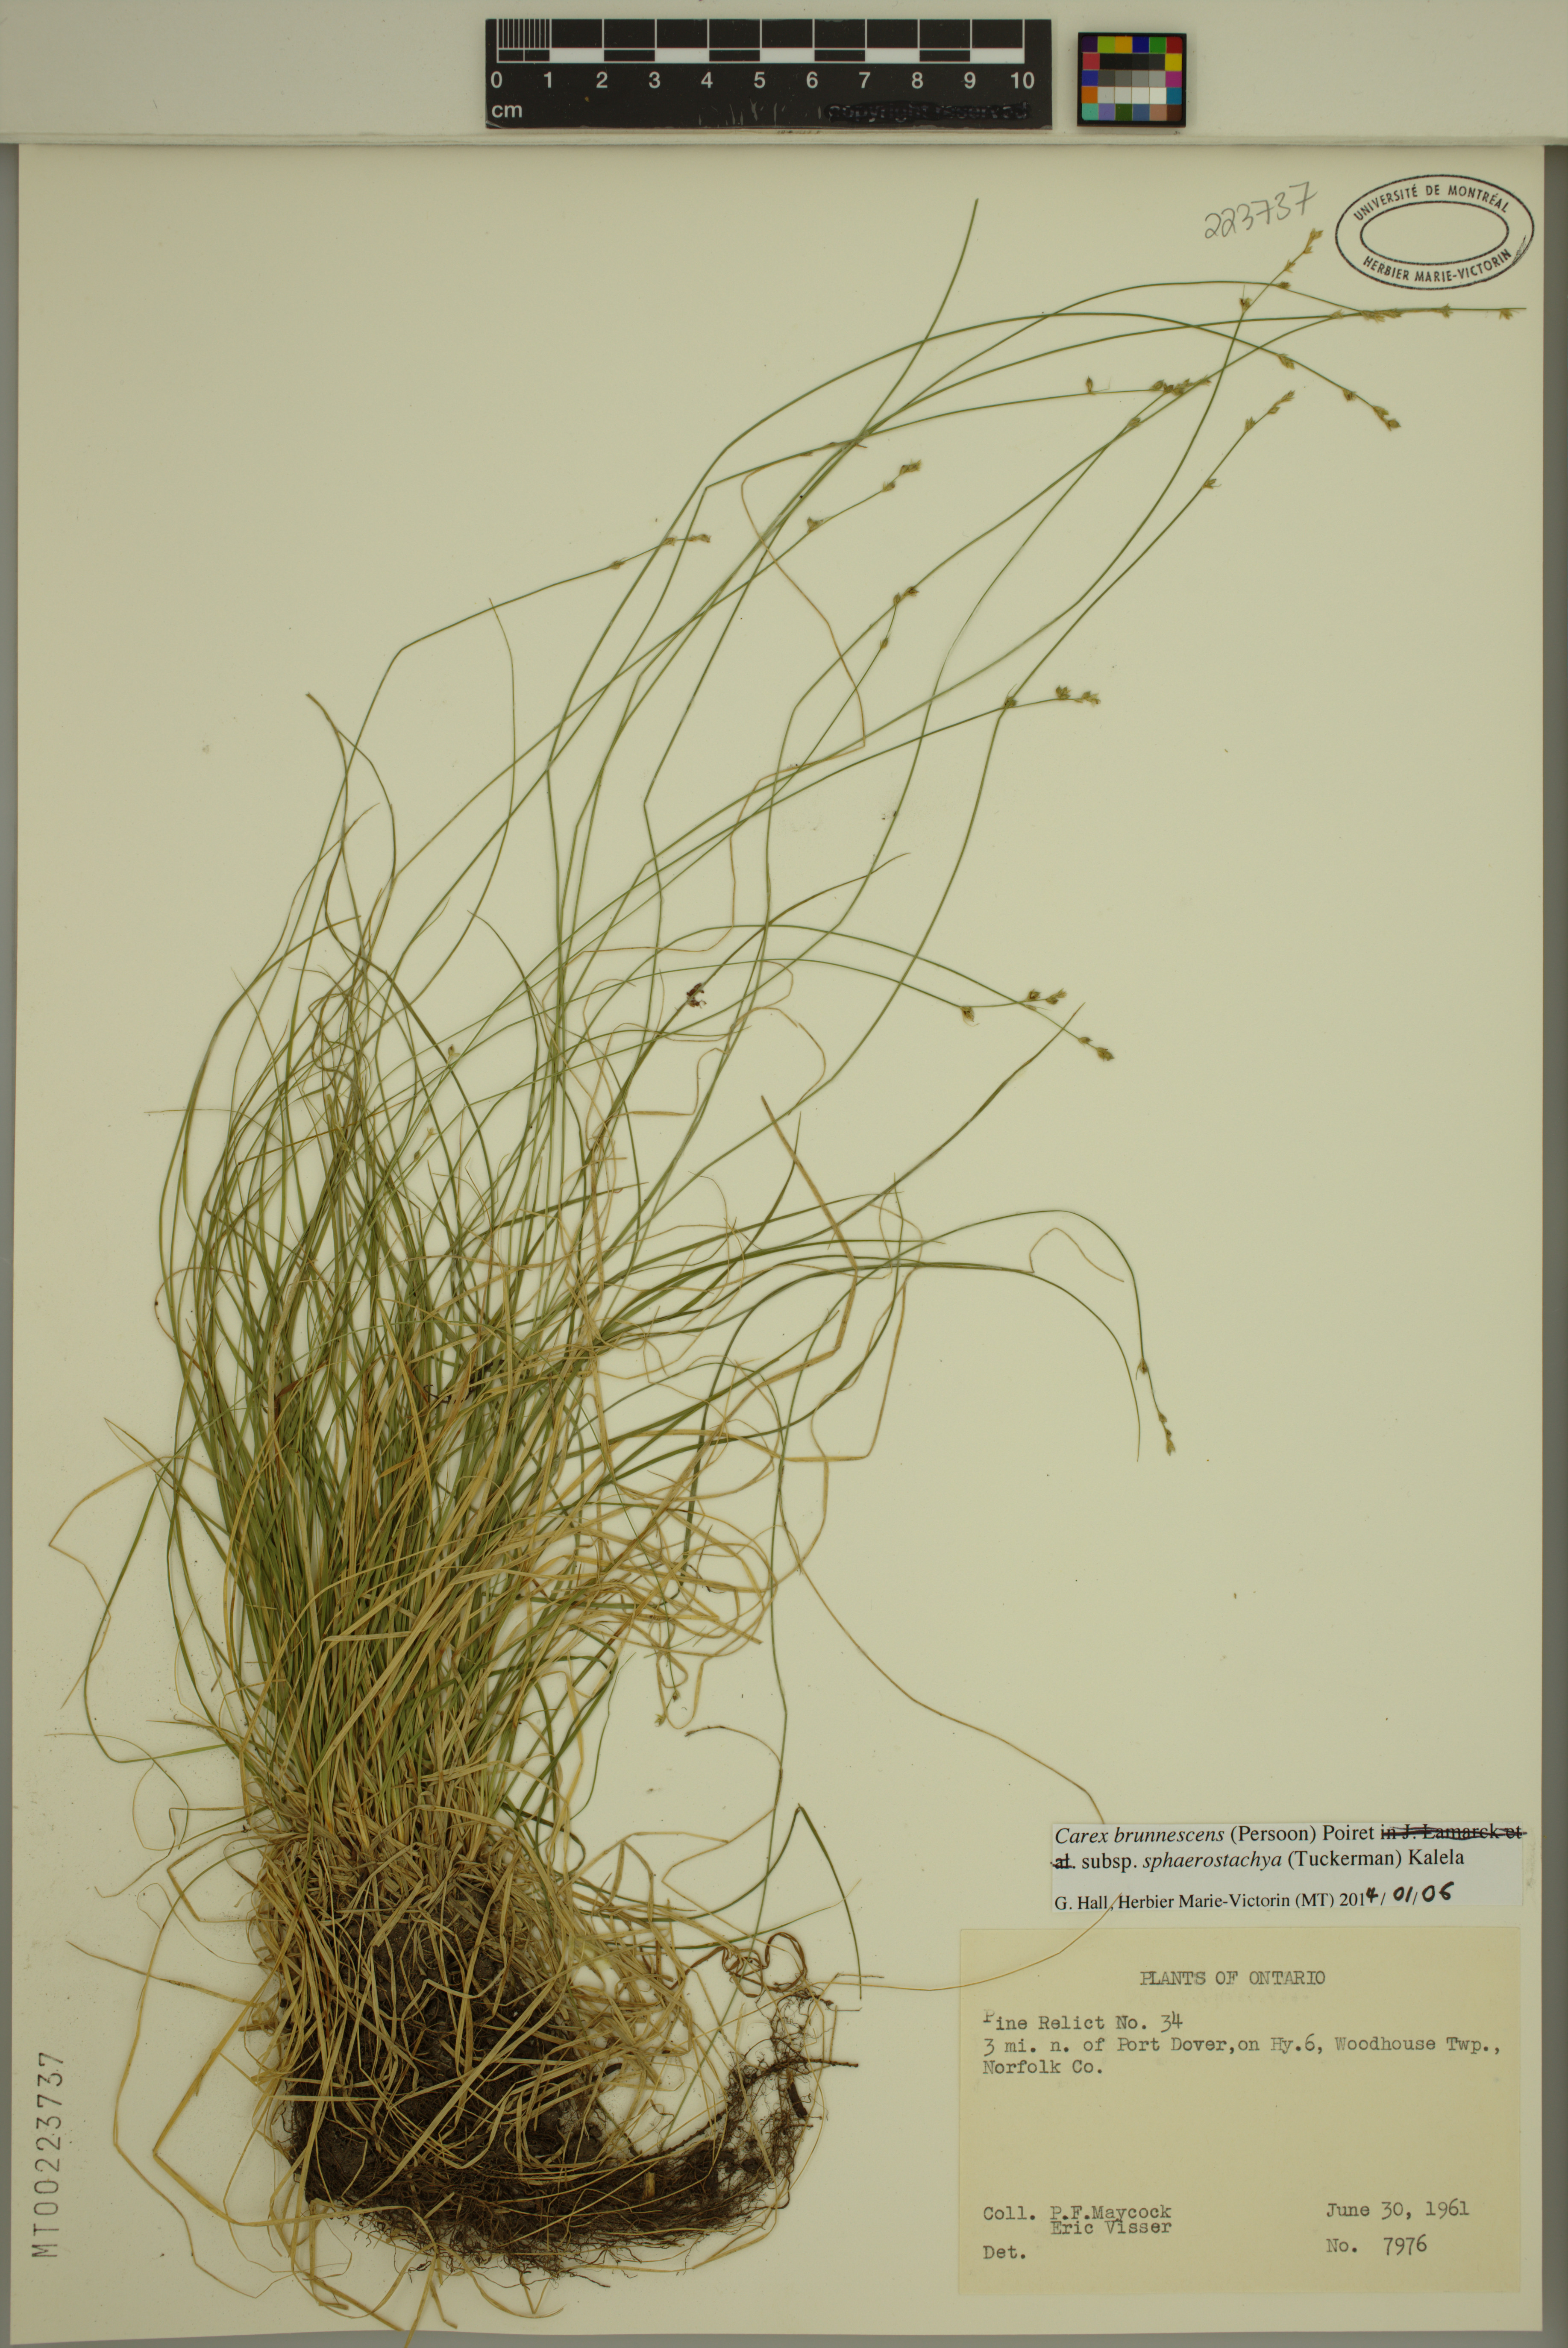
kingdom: Plantae
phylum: Tracheophyta
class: Liliopsida
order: Poales
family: Cyperaceae
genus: Carex
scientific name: Carex brunnescens
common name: Brown sedge
